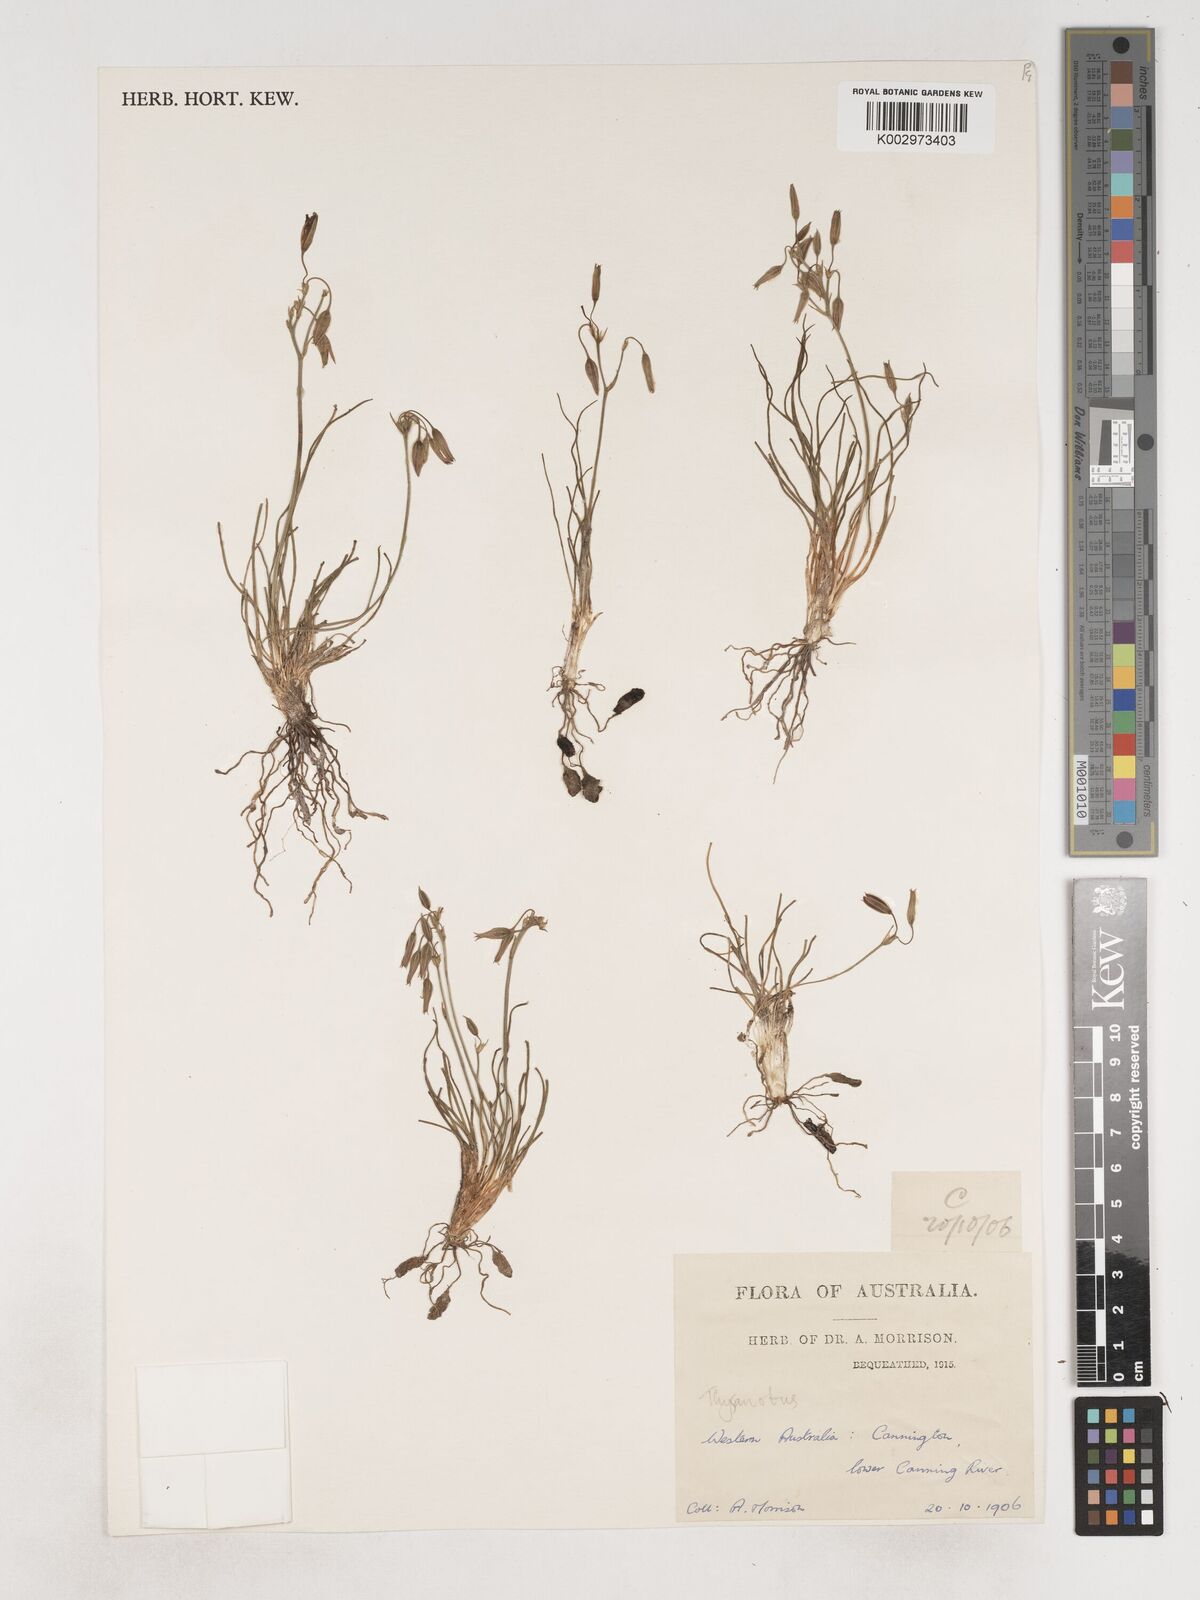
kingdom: Plantae
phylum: Tracheophyta
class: Liliopsida
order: Asparagales
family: Asparagaceae
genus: Thysanotus
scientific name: Thysanotus
